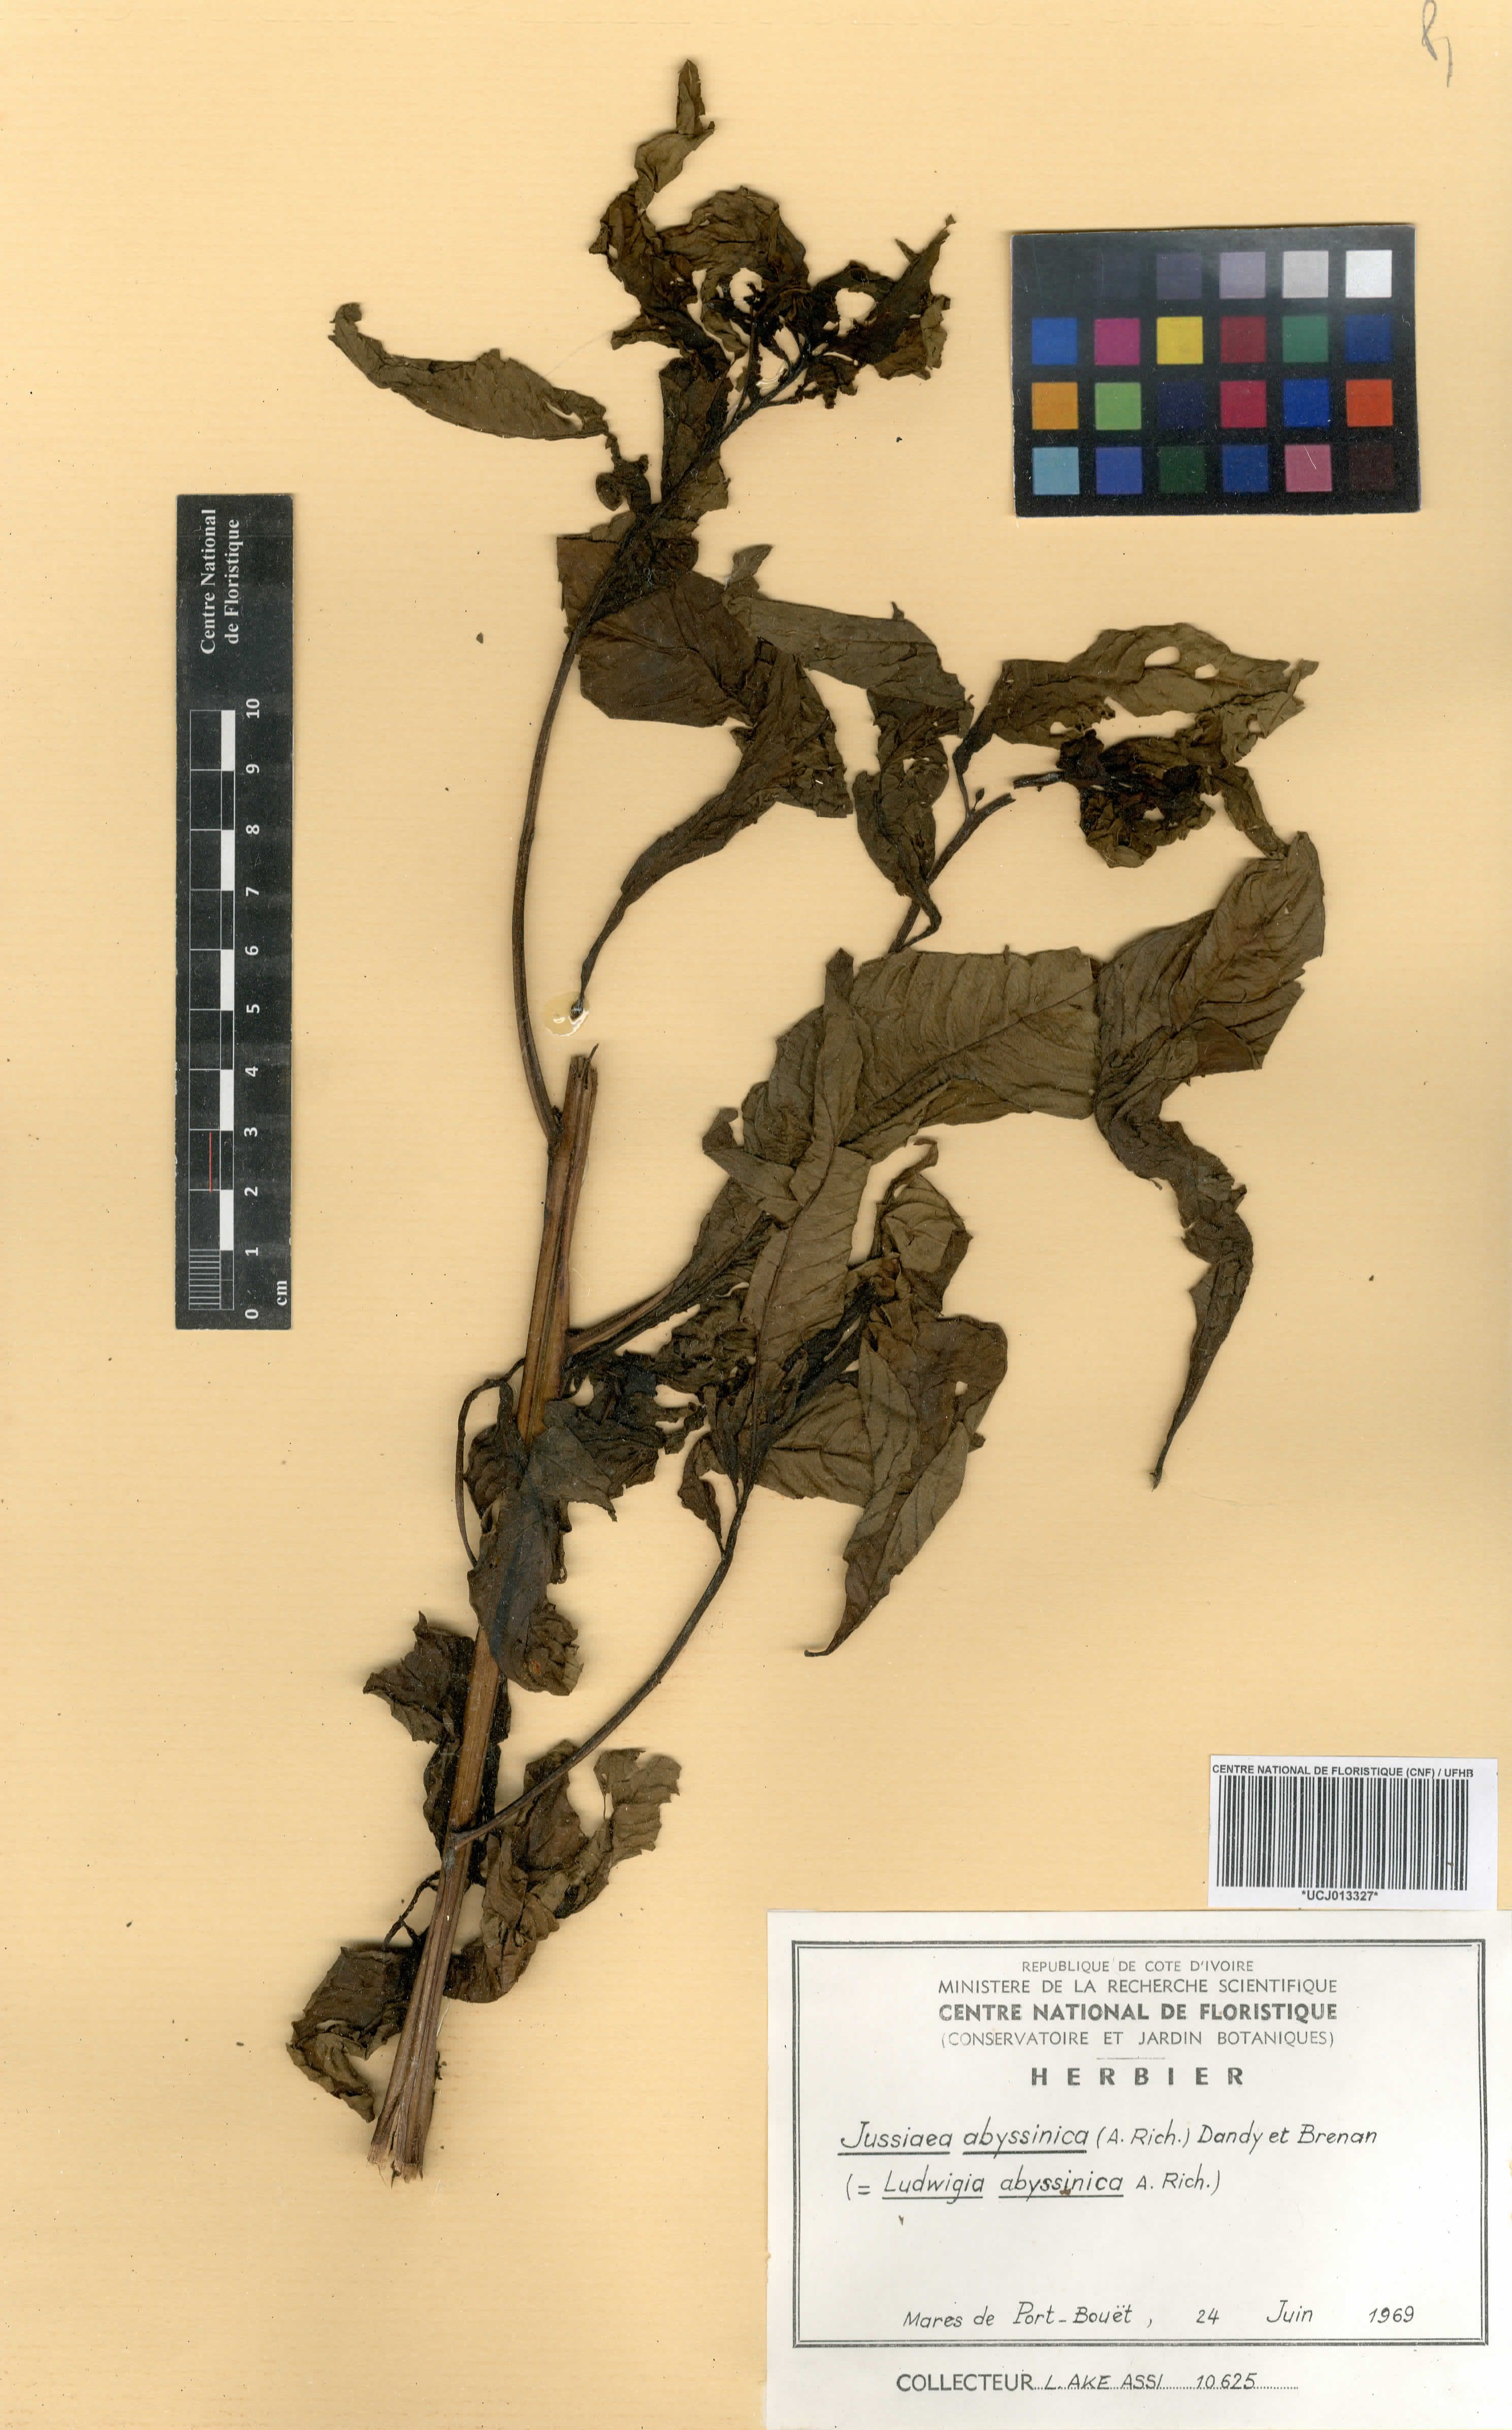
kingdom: Plantae
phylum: Tracheophyta
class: Magnoliopsida
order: Myrtales
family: Onagraceae
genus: Ludwigia
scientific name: Ludwigia abyssinica
